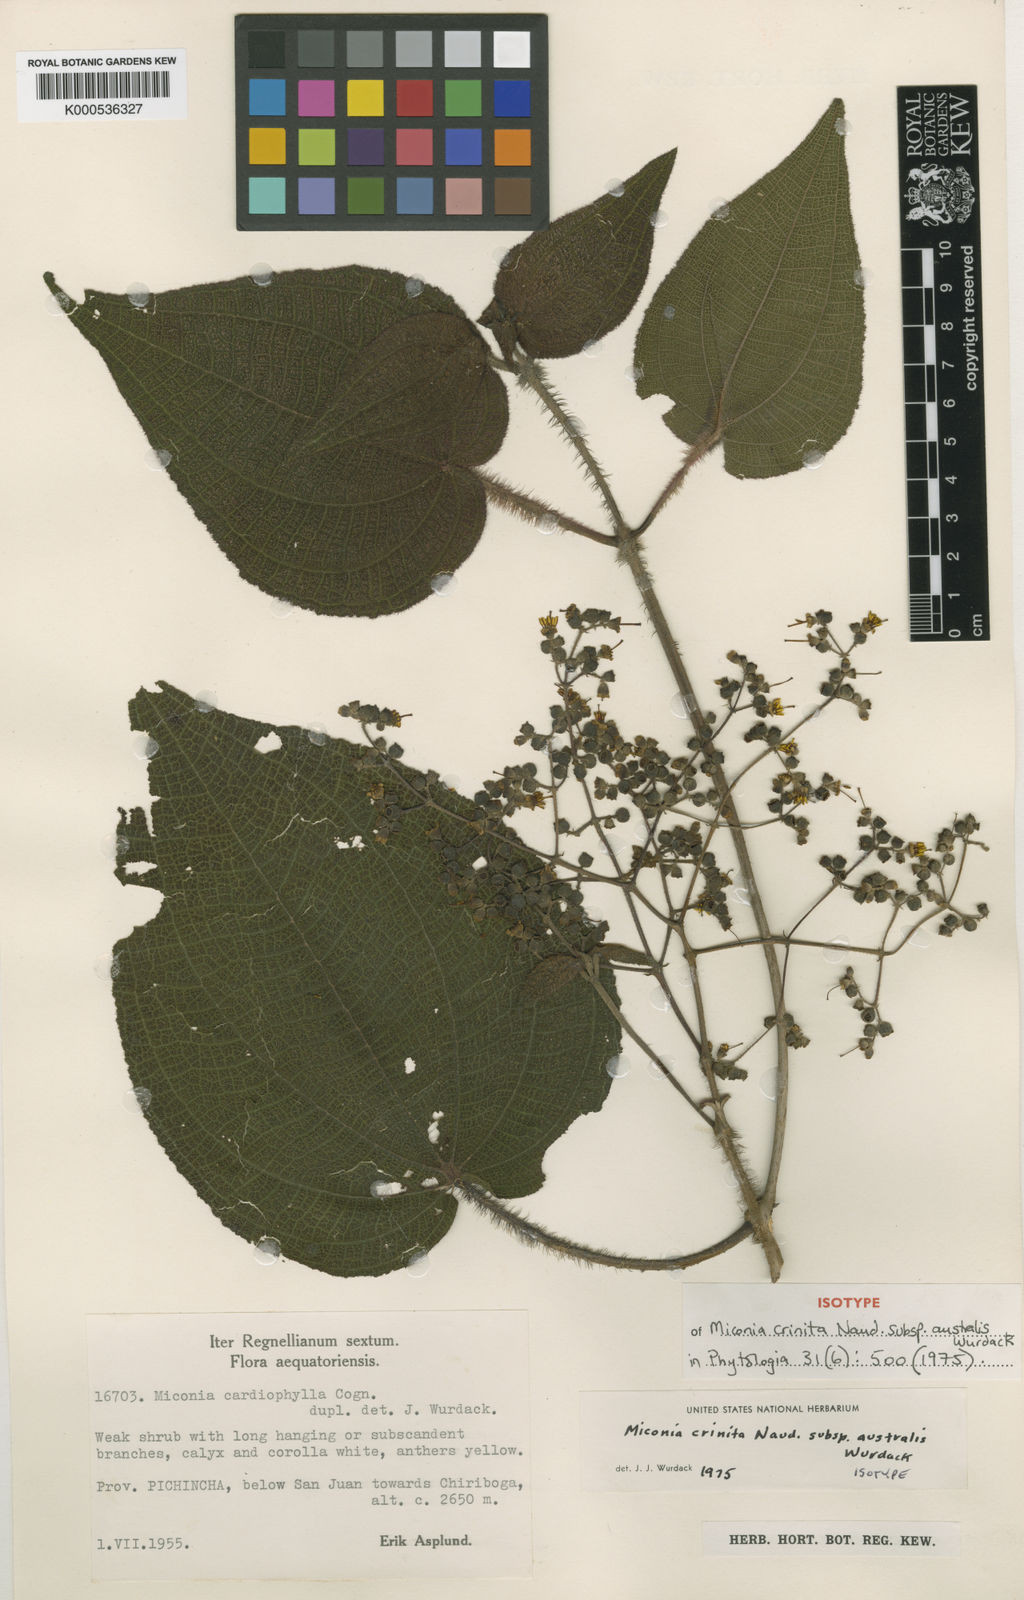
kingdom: Plantae
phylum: Tracheophyta
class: Magnoliopsida
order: Myrtales
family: Melastomataceae
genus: Miconia
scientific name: Miconia crinita
